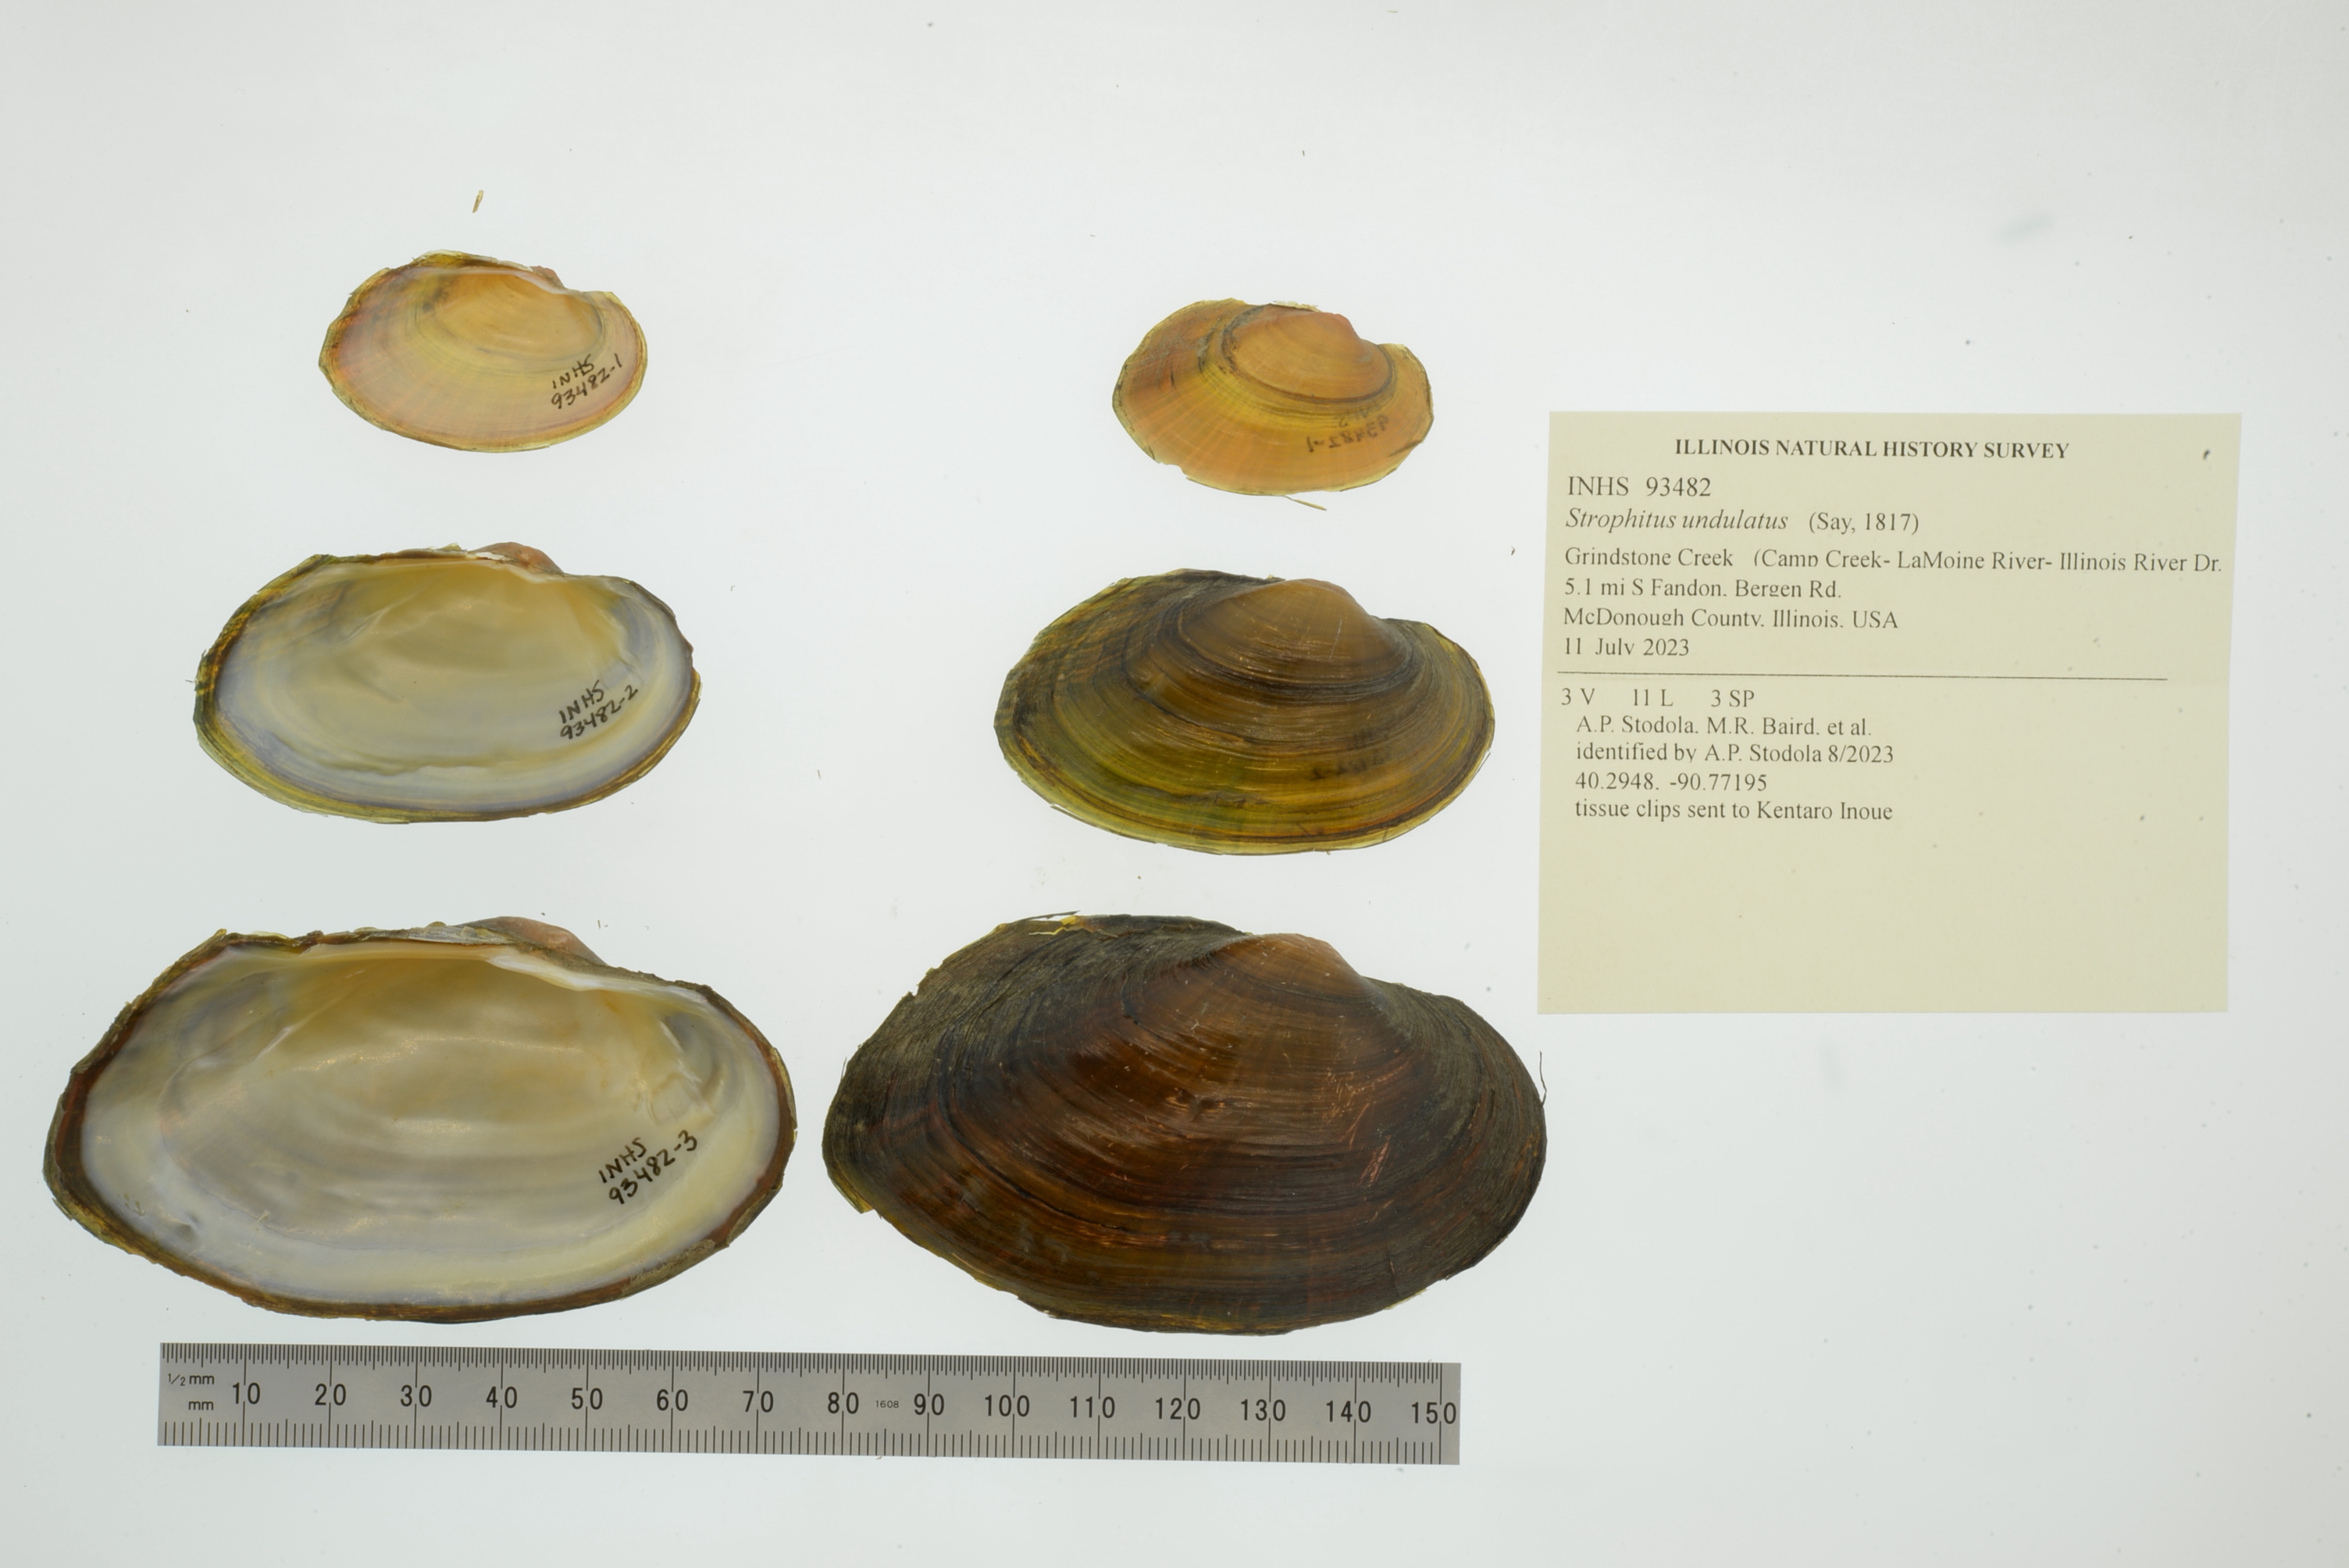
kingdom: Animalia
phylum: Mollusca
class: Bivalvia
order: Unionida
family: Unionidae
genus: Strophitus
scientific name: Strophitus undulatus
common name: Creeper
